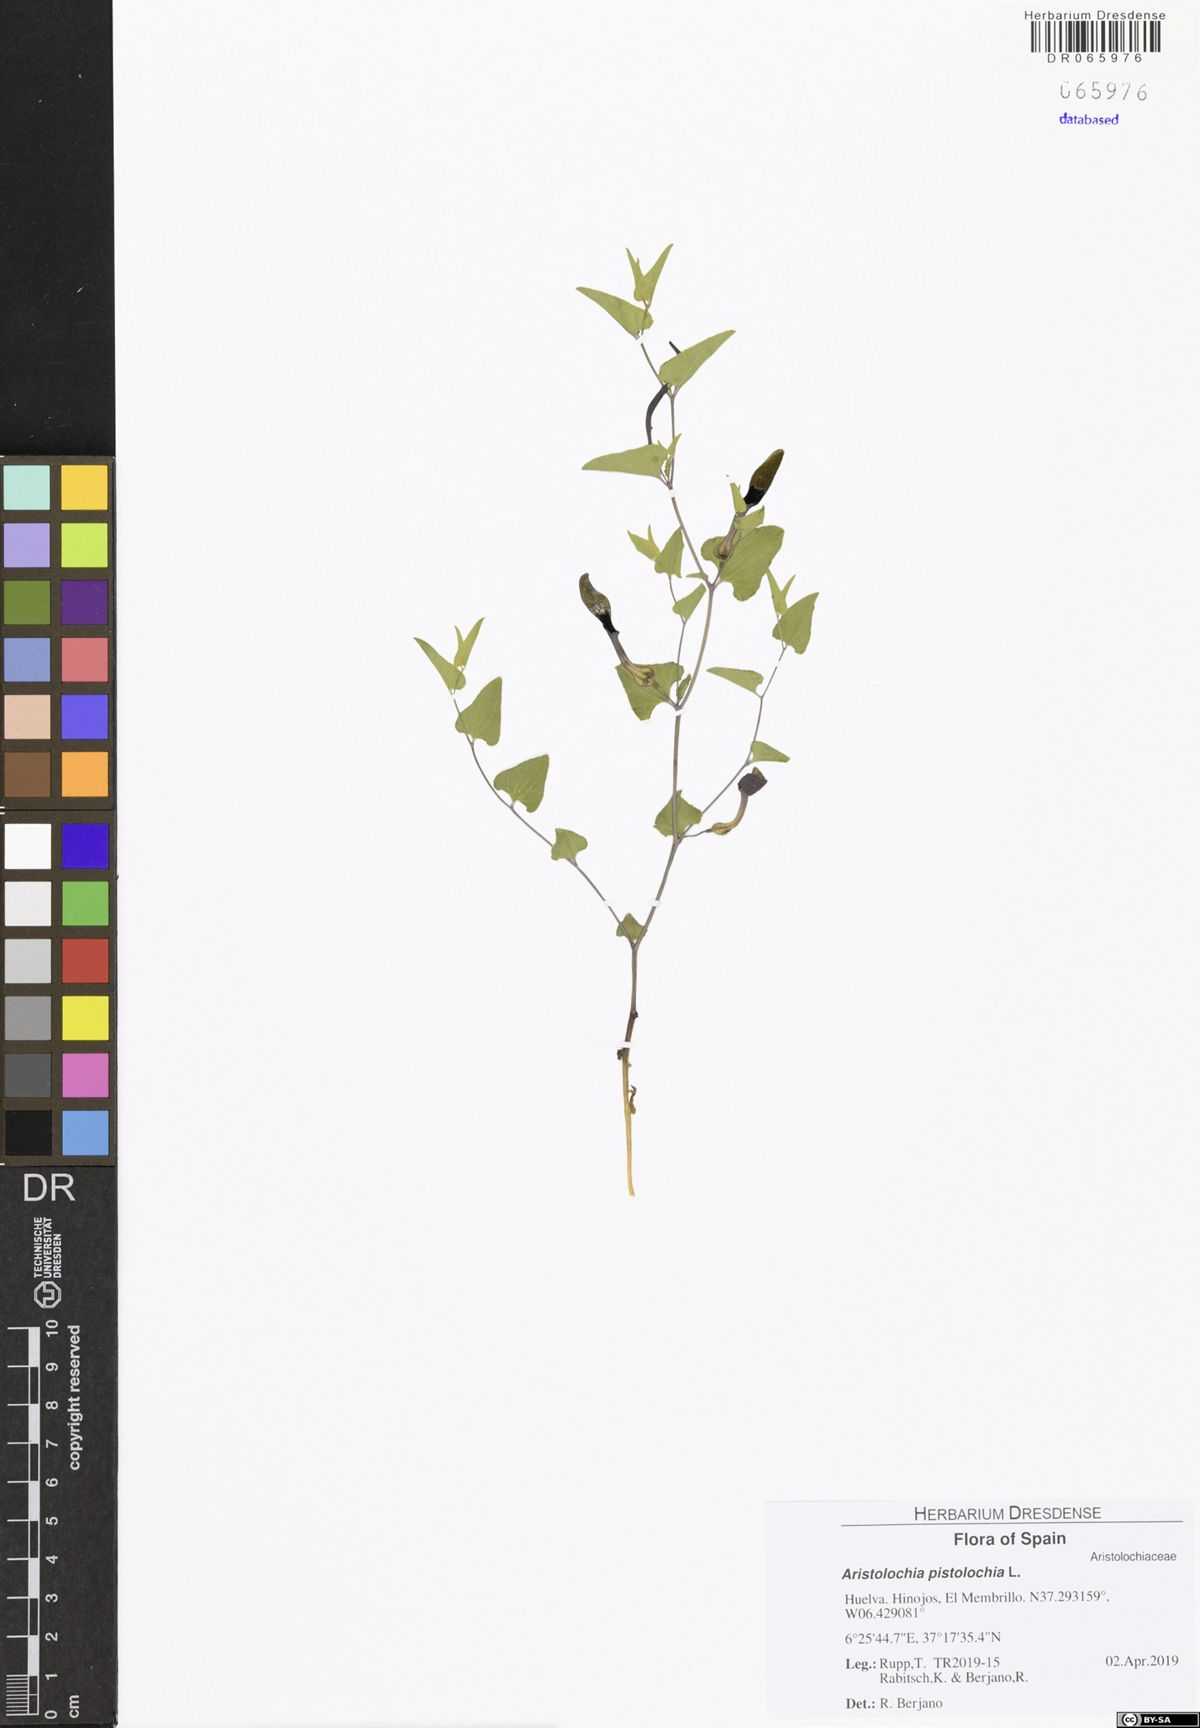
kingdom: Plantae
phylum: Tracheophyta
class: Magnoliopsida
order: Piperales
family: Aristolochiaceae
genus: Aristolochia
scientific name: Aristolochia pistolochia
